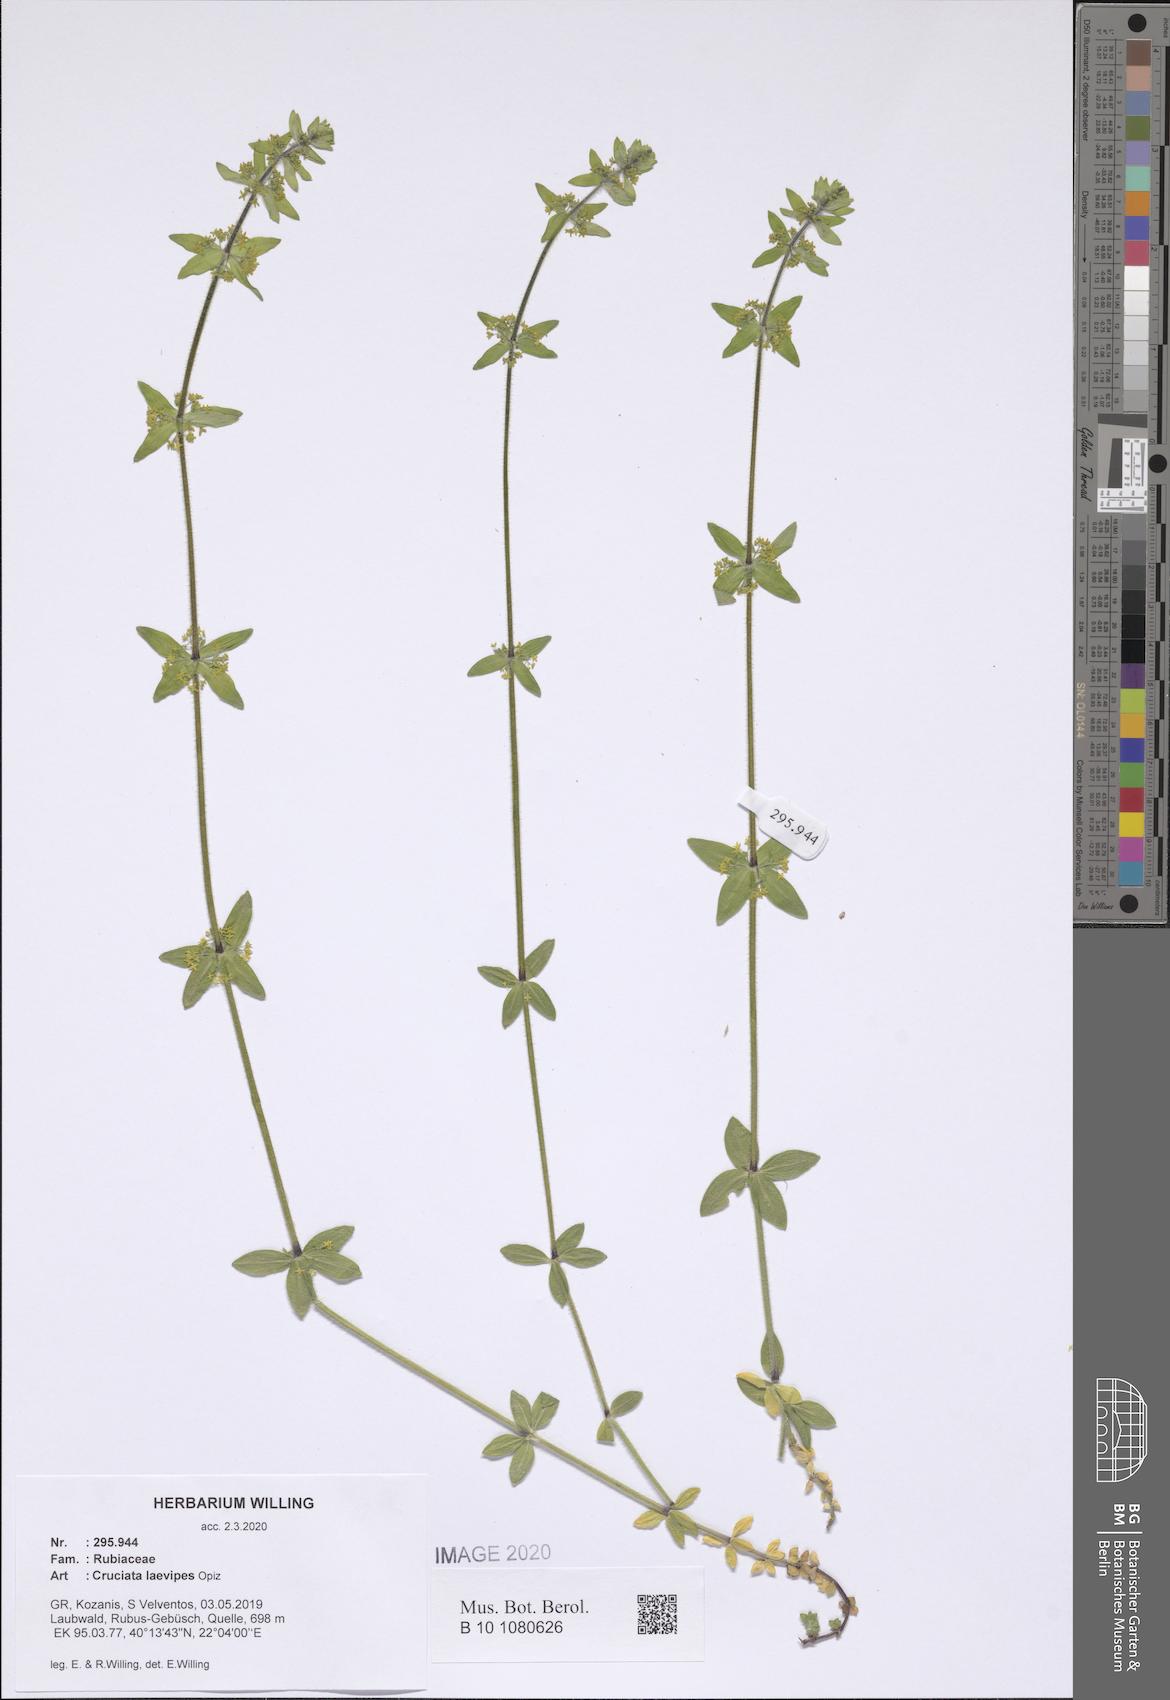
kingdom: Plantae
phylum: Tracheophyta
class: Magnoliopsida
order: Gentianales
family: Rubiaceae
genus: Cruciata
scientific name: Cruciata laevipes
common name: Crosswort
